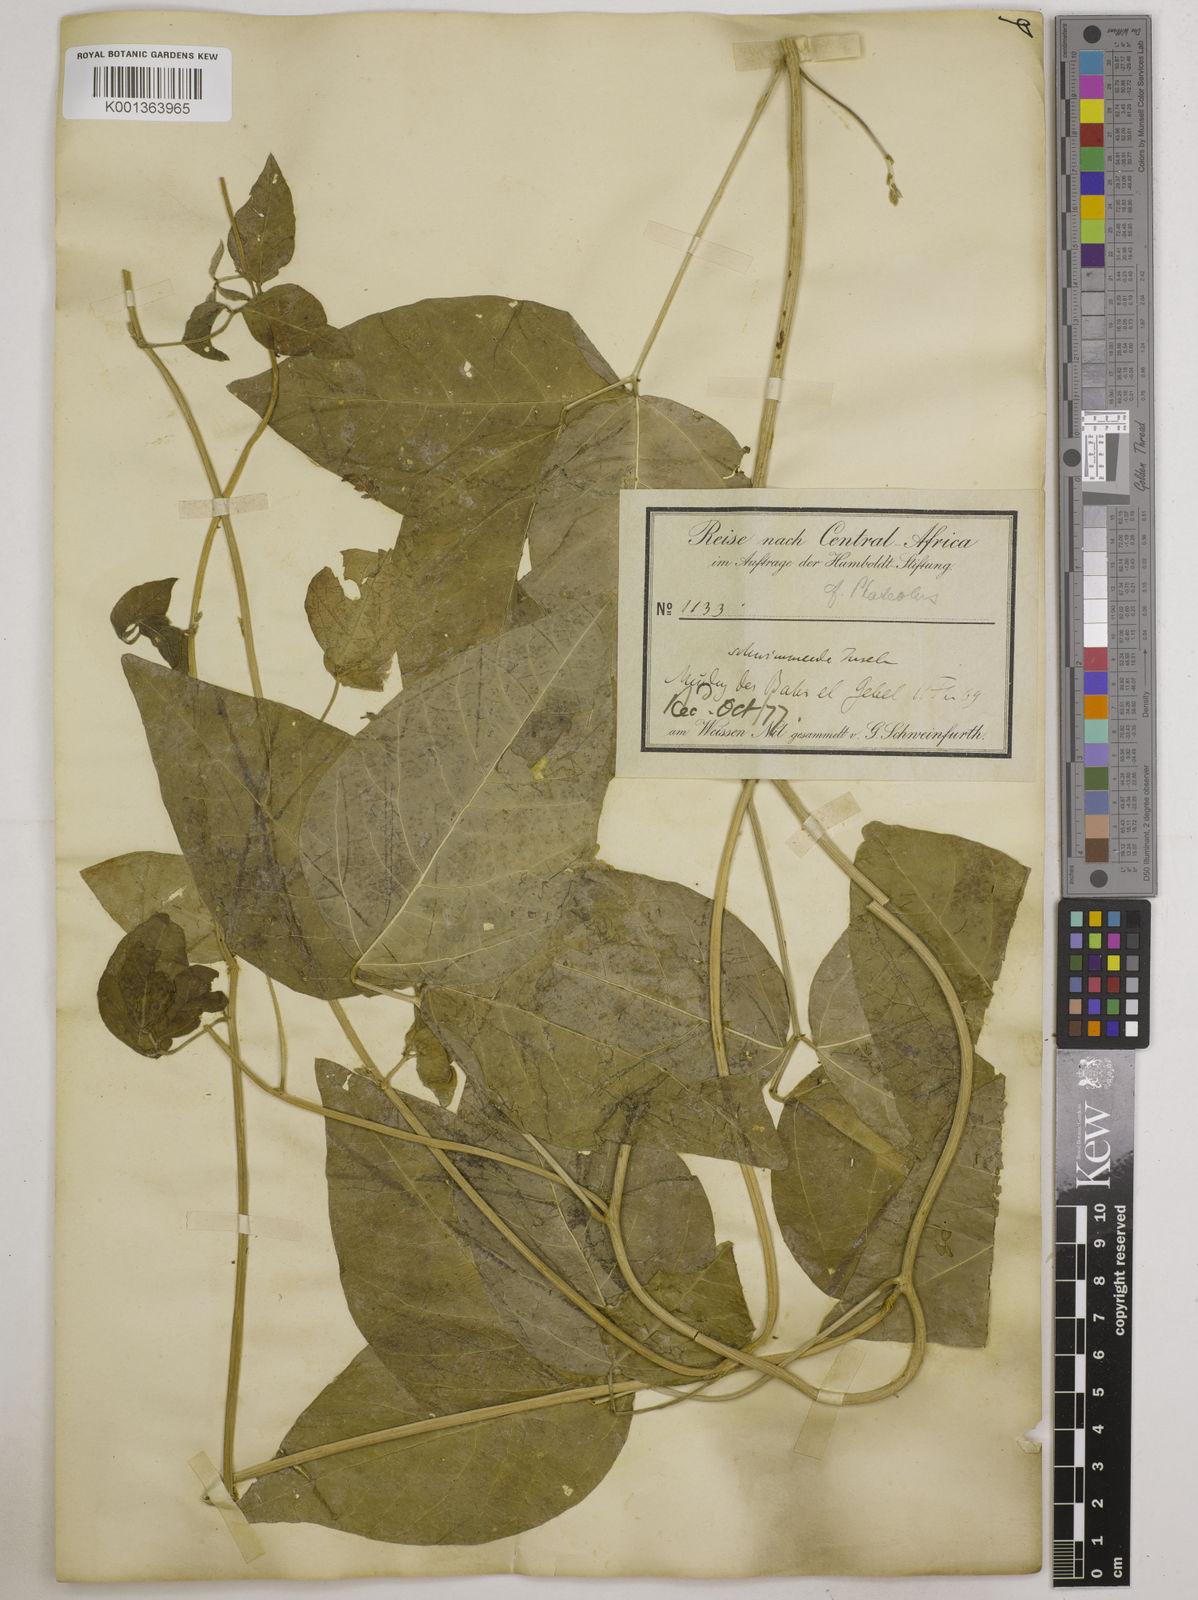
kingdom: Plantae
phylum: Tracheophyta
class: Magnoliopsida
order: Fabales
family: Fabaceae
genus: Phaseolus
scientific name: Phaseolus lunatus
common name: Sieva bean
